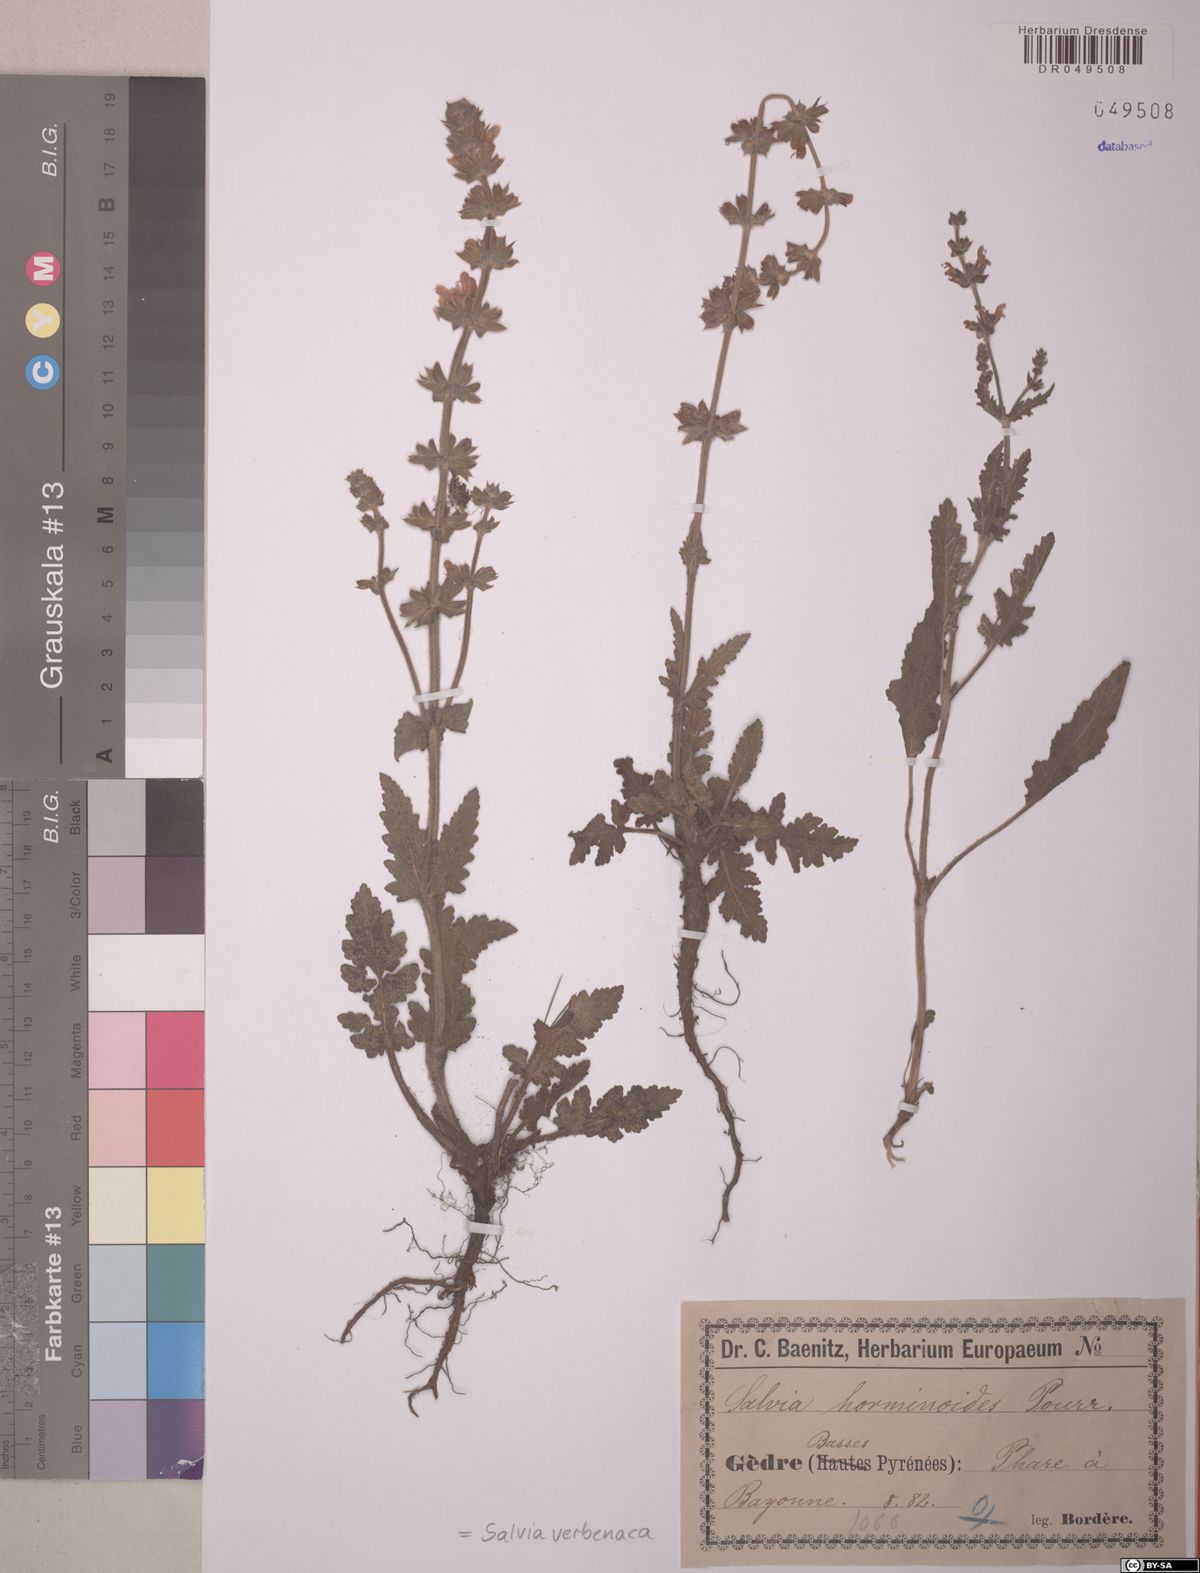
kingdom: Plantae
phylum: Tracheophyta
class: Magnoliopsida
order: Lamiales
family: Lamiaceae
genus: Salvia
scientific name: Salvia verbenaca
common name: Wild clary
